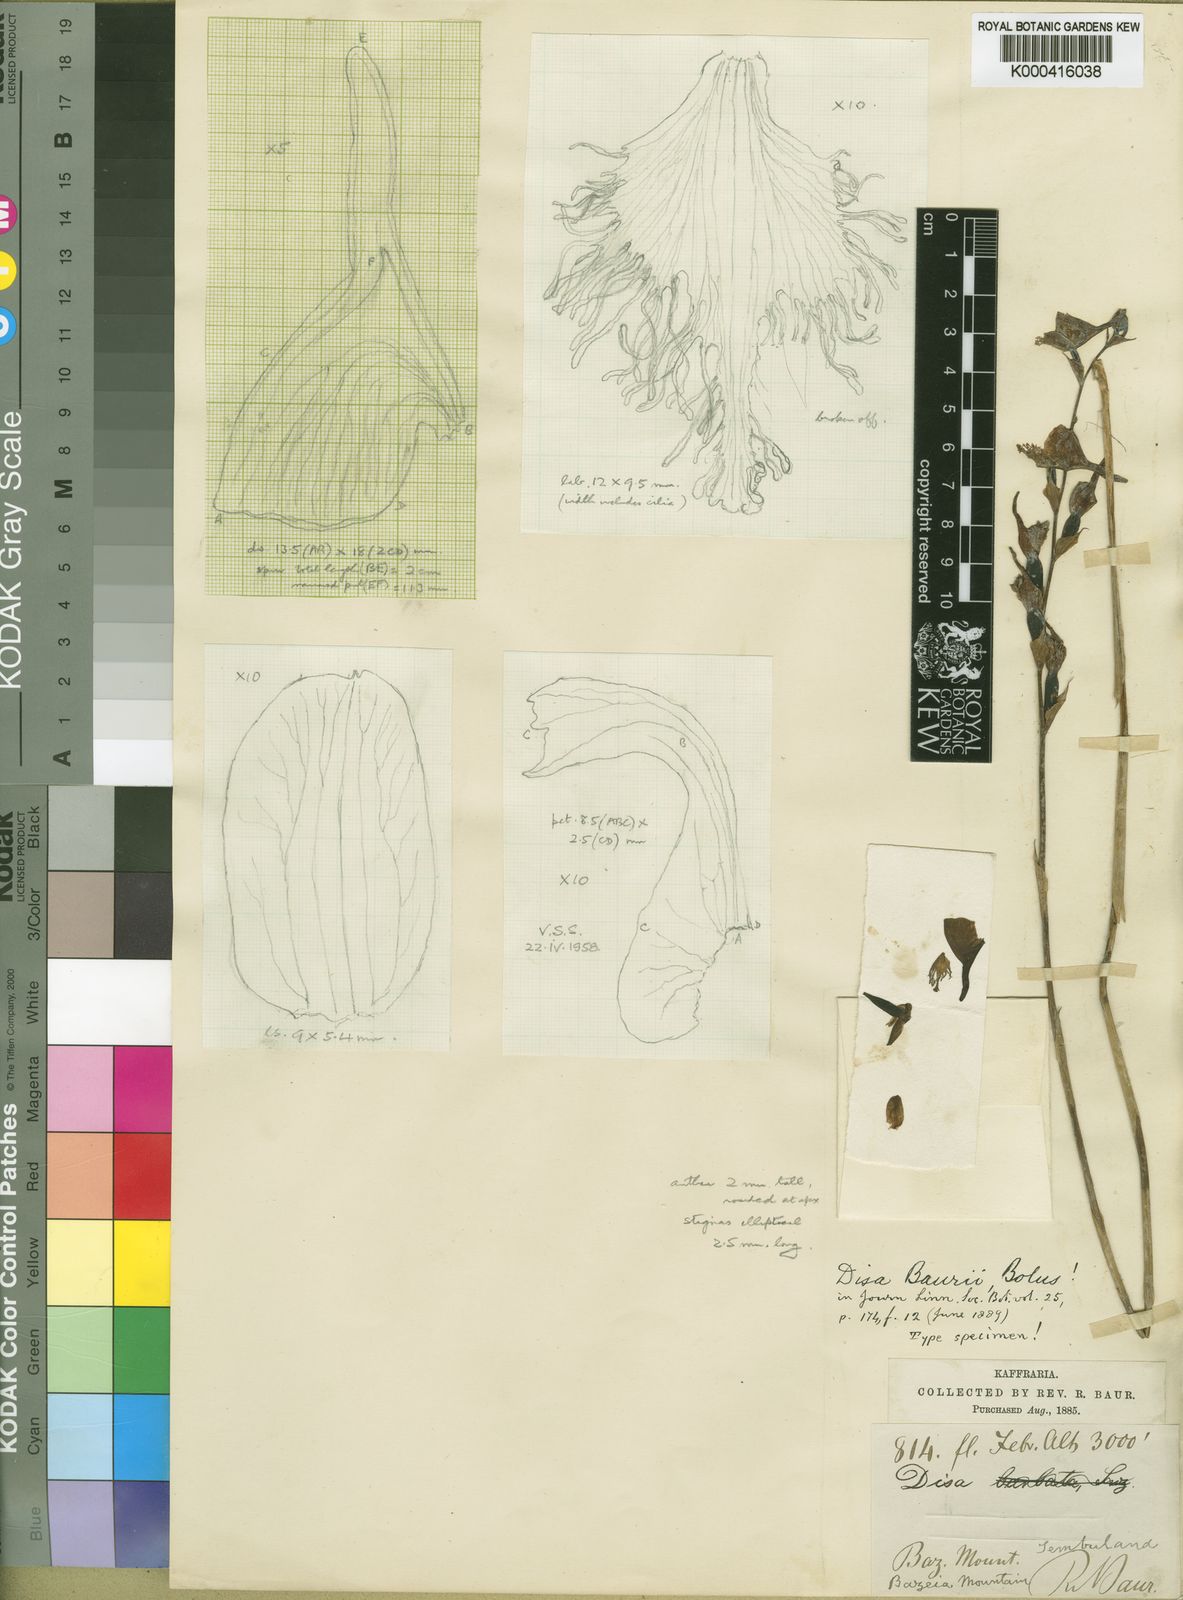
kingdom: Plantae
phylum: Tracheophyta
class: Liliopsida
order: Asparagales
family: Orchidaceae
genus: Disa
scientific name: Disa baurii
